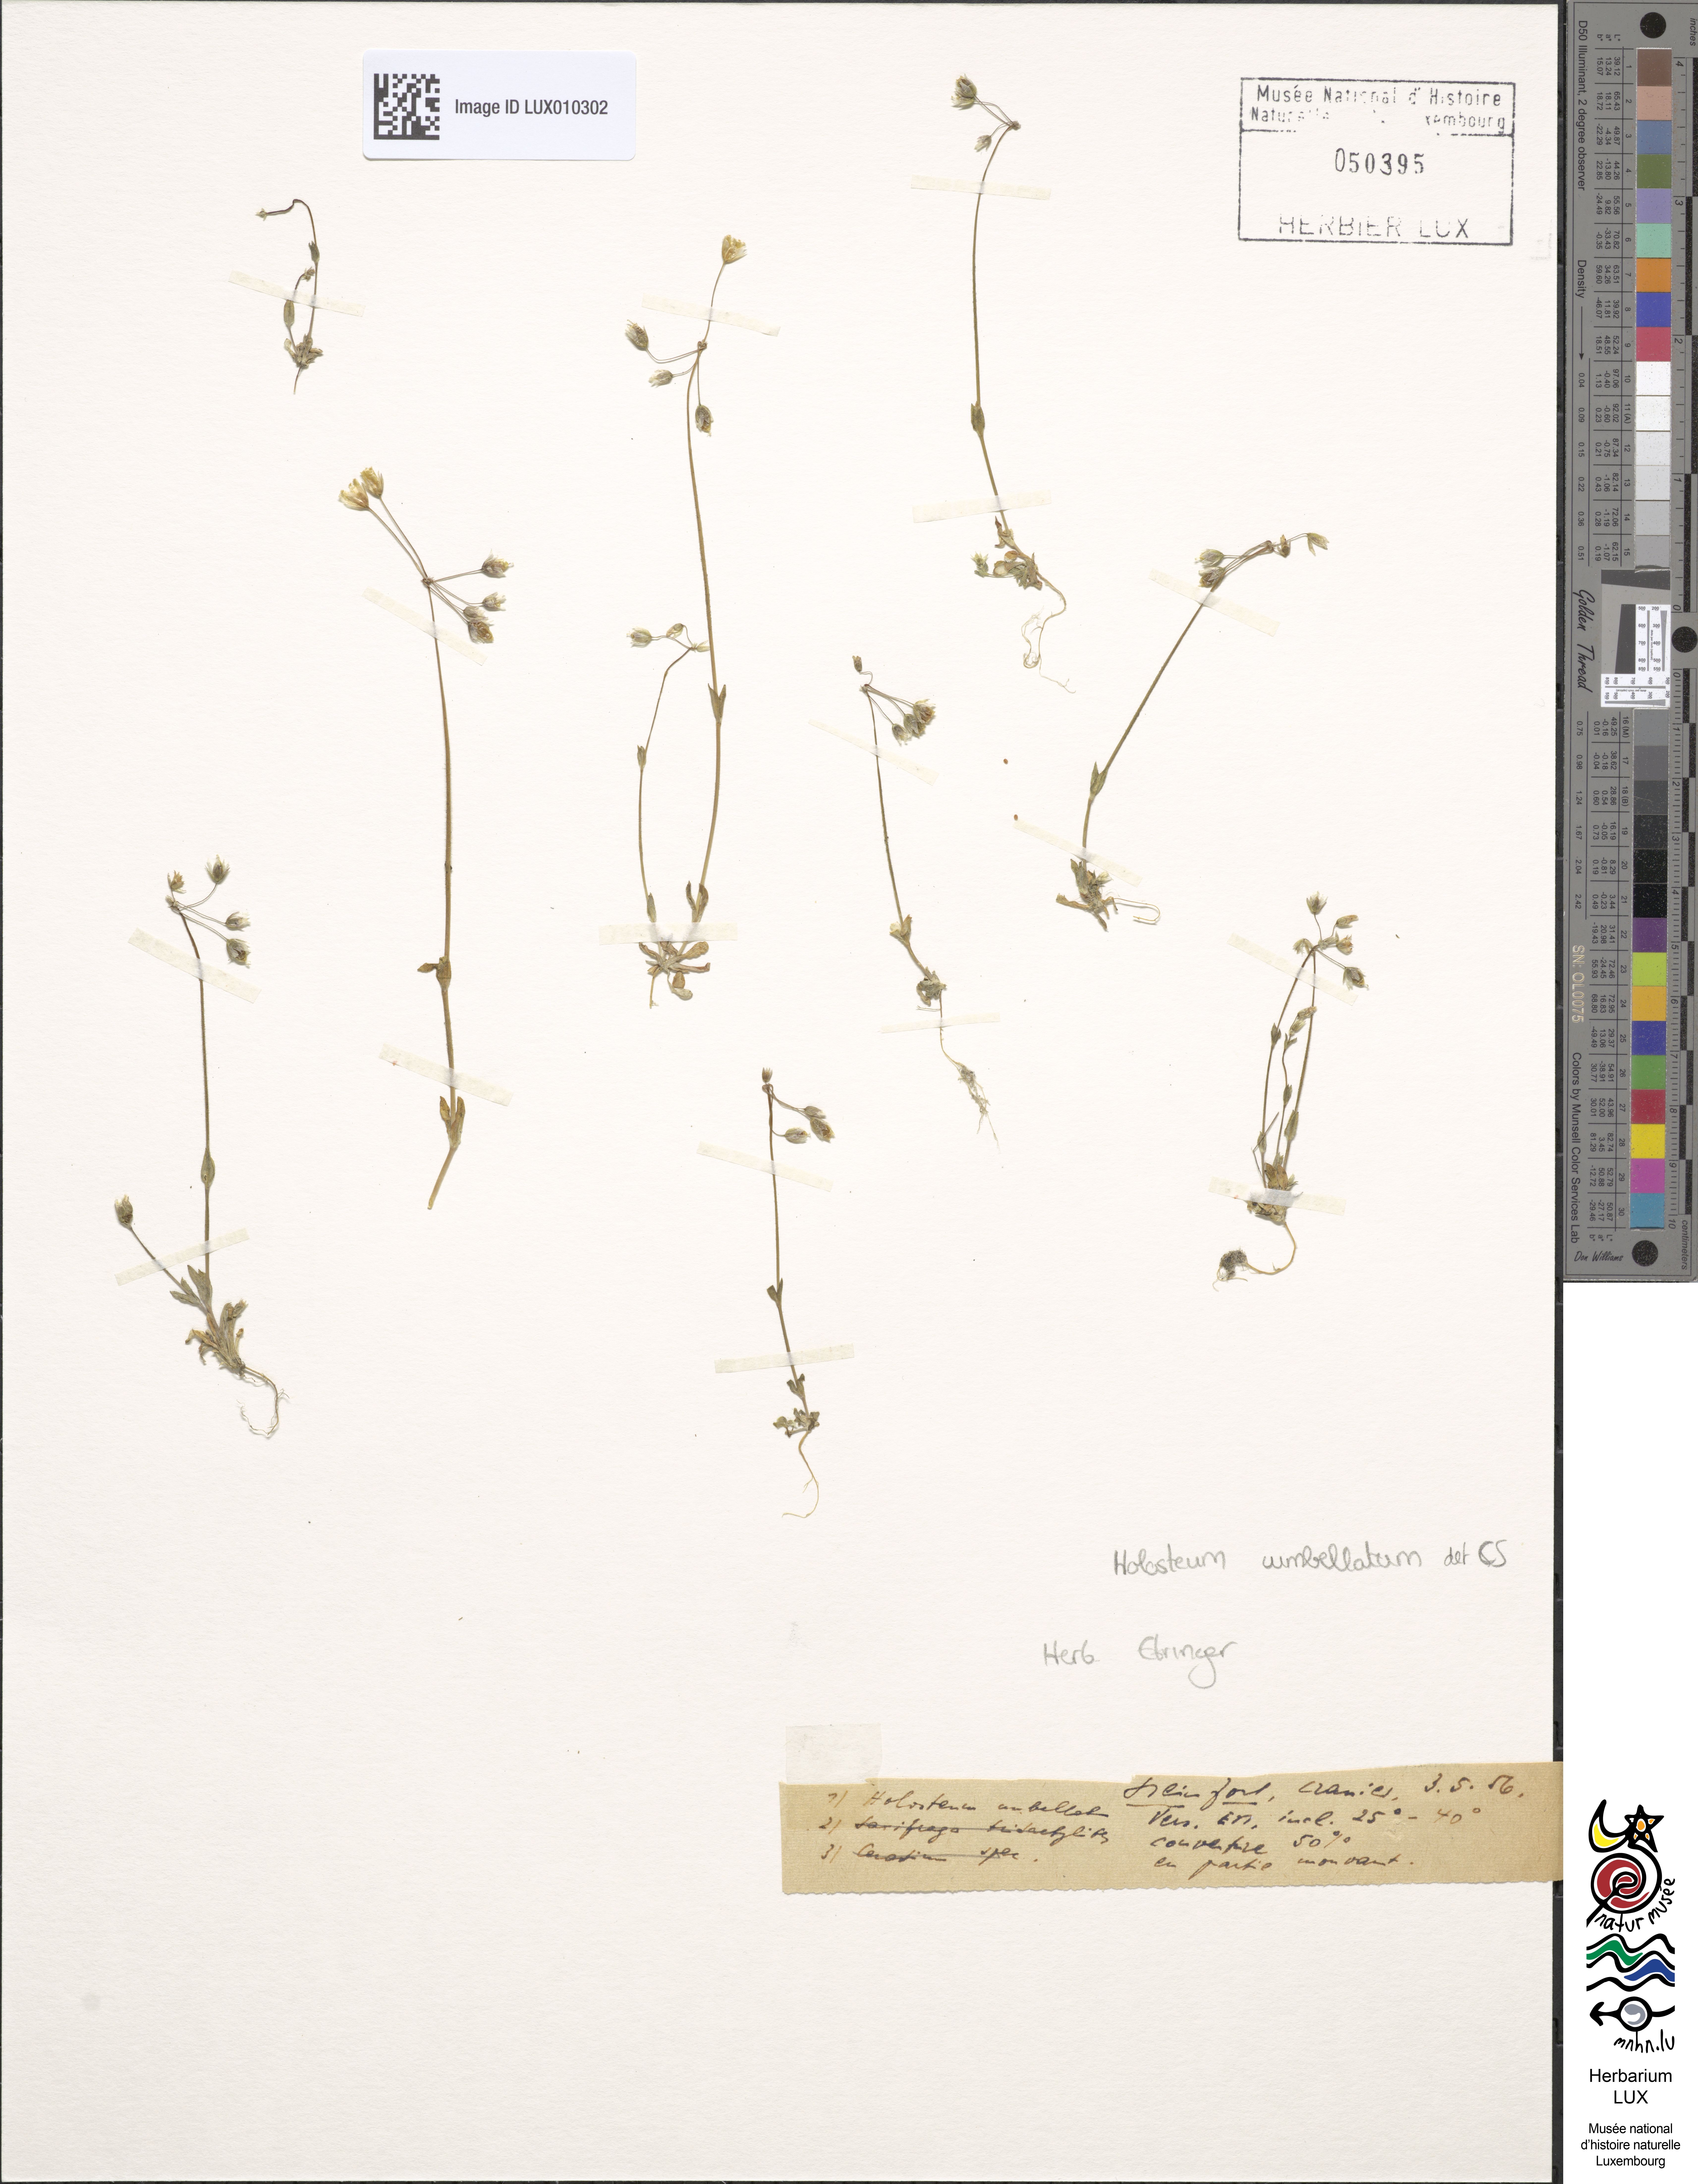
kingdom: Plantae
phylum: Tracheophyta
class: Magnoliopsida
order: Caryophyllales
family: Caryophyllaceae
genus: Holosteum
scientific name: Holosteum umbellatum
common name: Jagged chickweed
